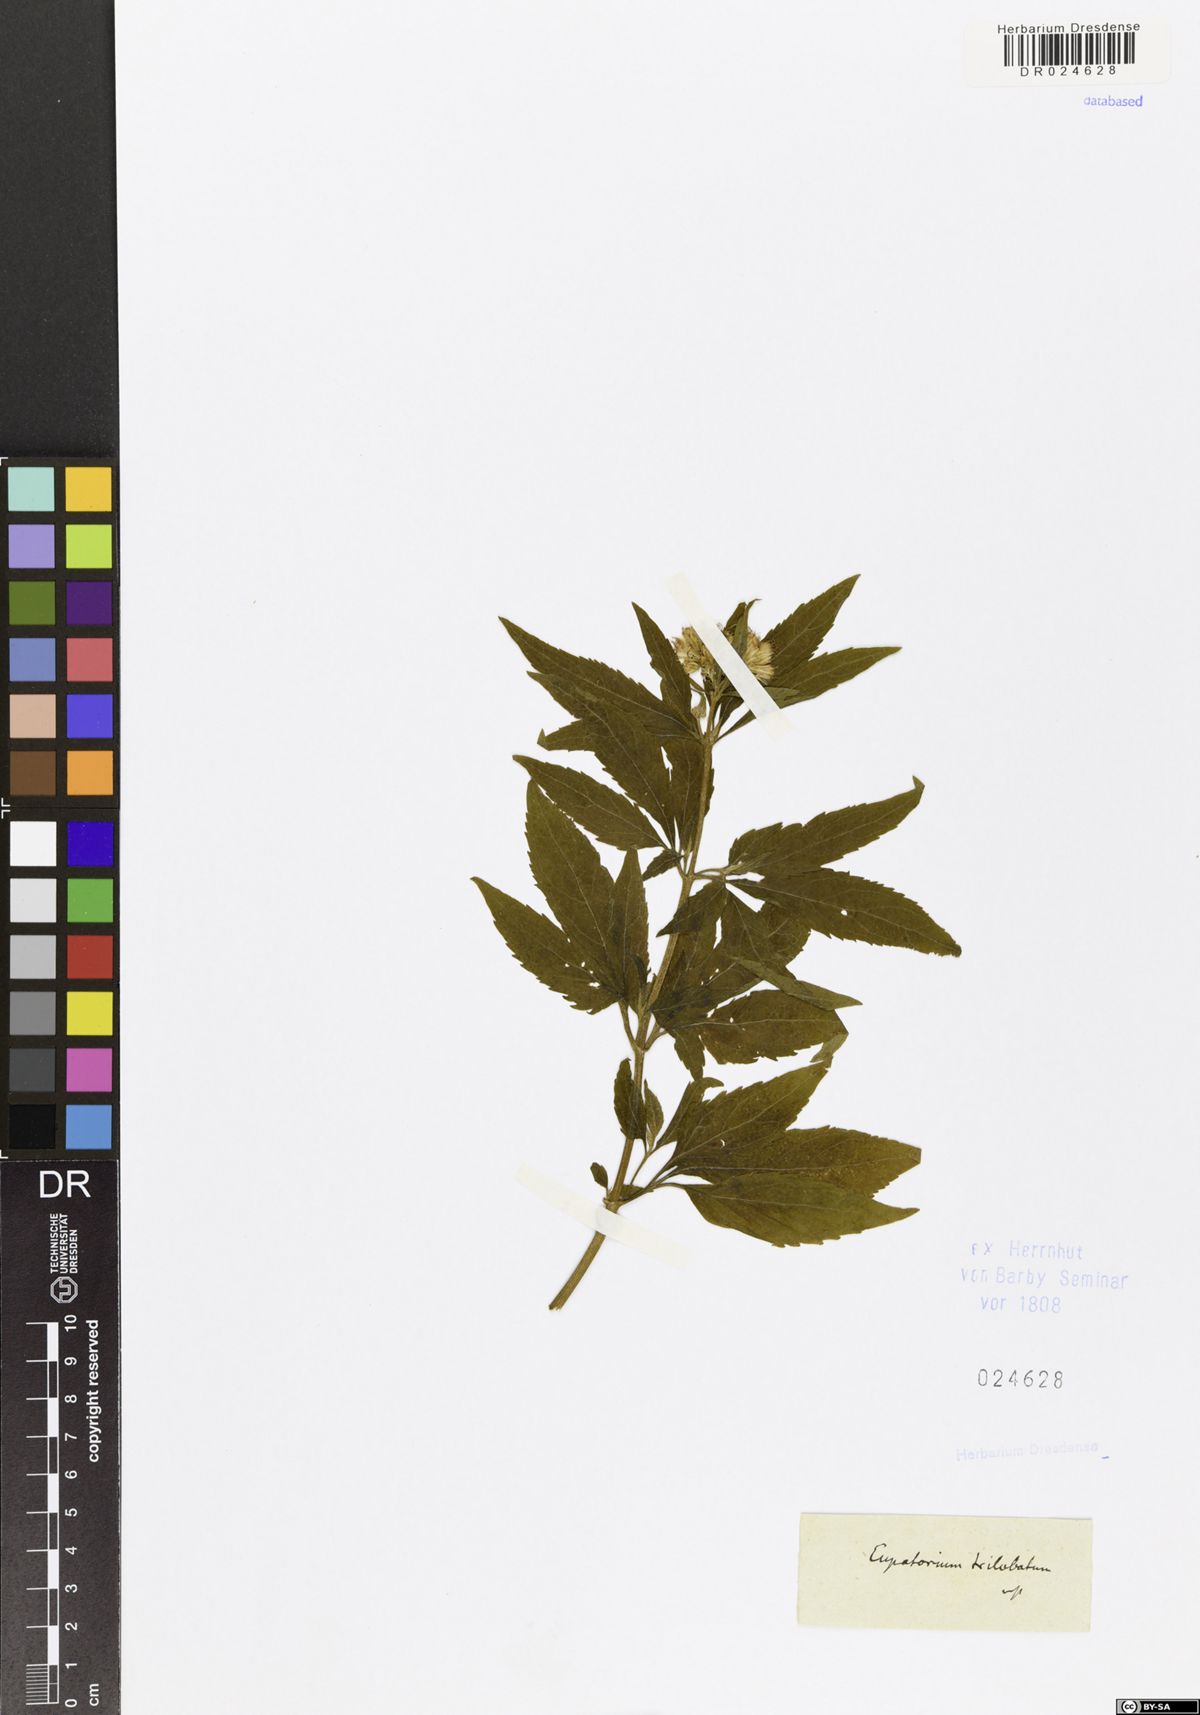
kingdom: Plantae
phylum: Tracheophyta
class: Magnoliopsida
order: Asterales
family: Asteraceae
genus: Eupatorium
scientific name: Eupatorium
